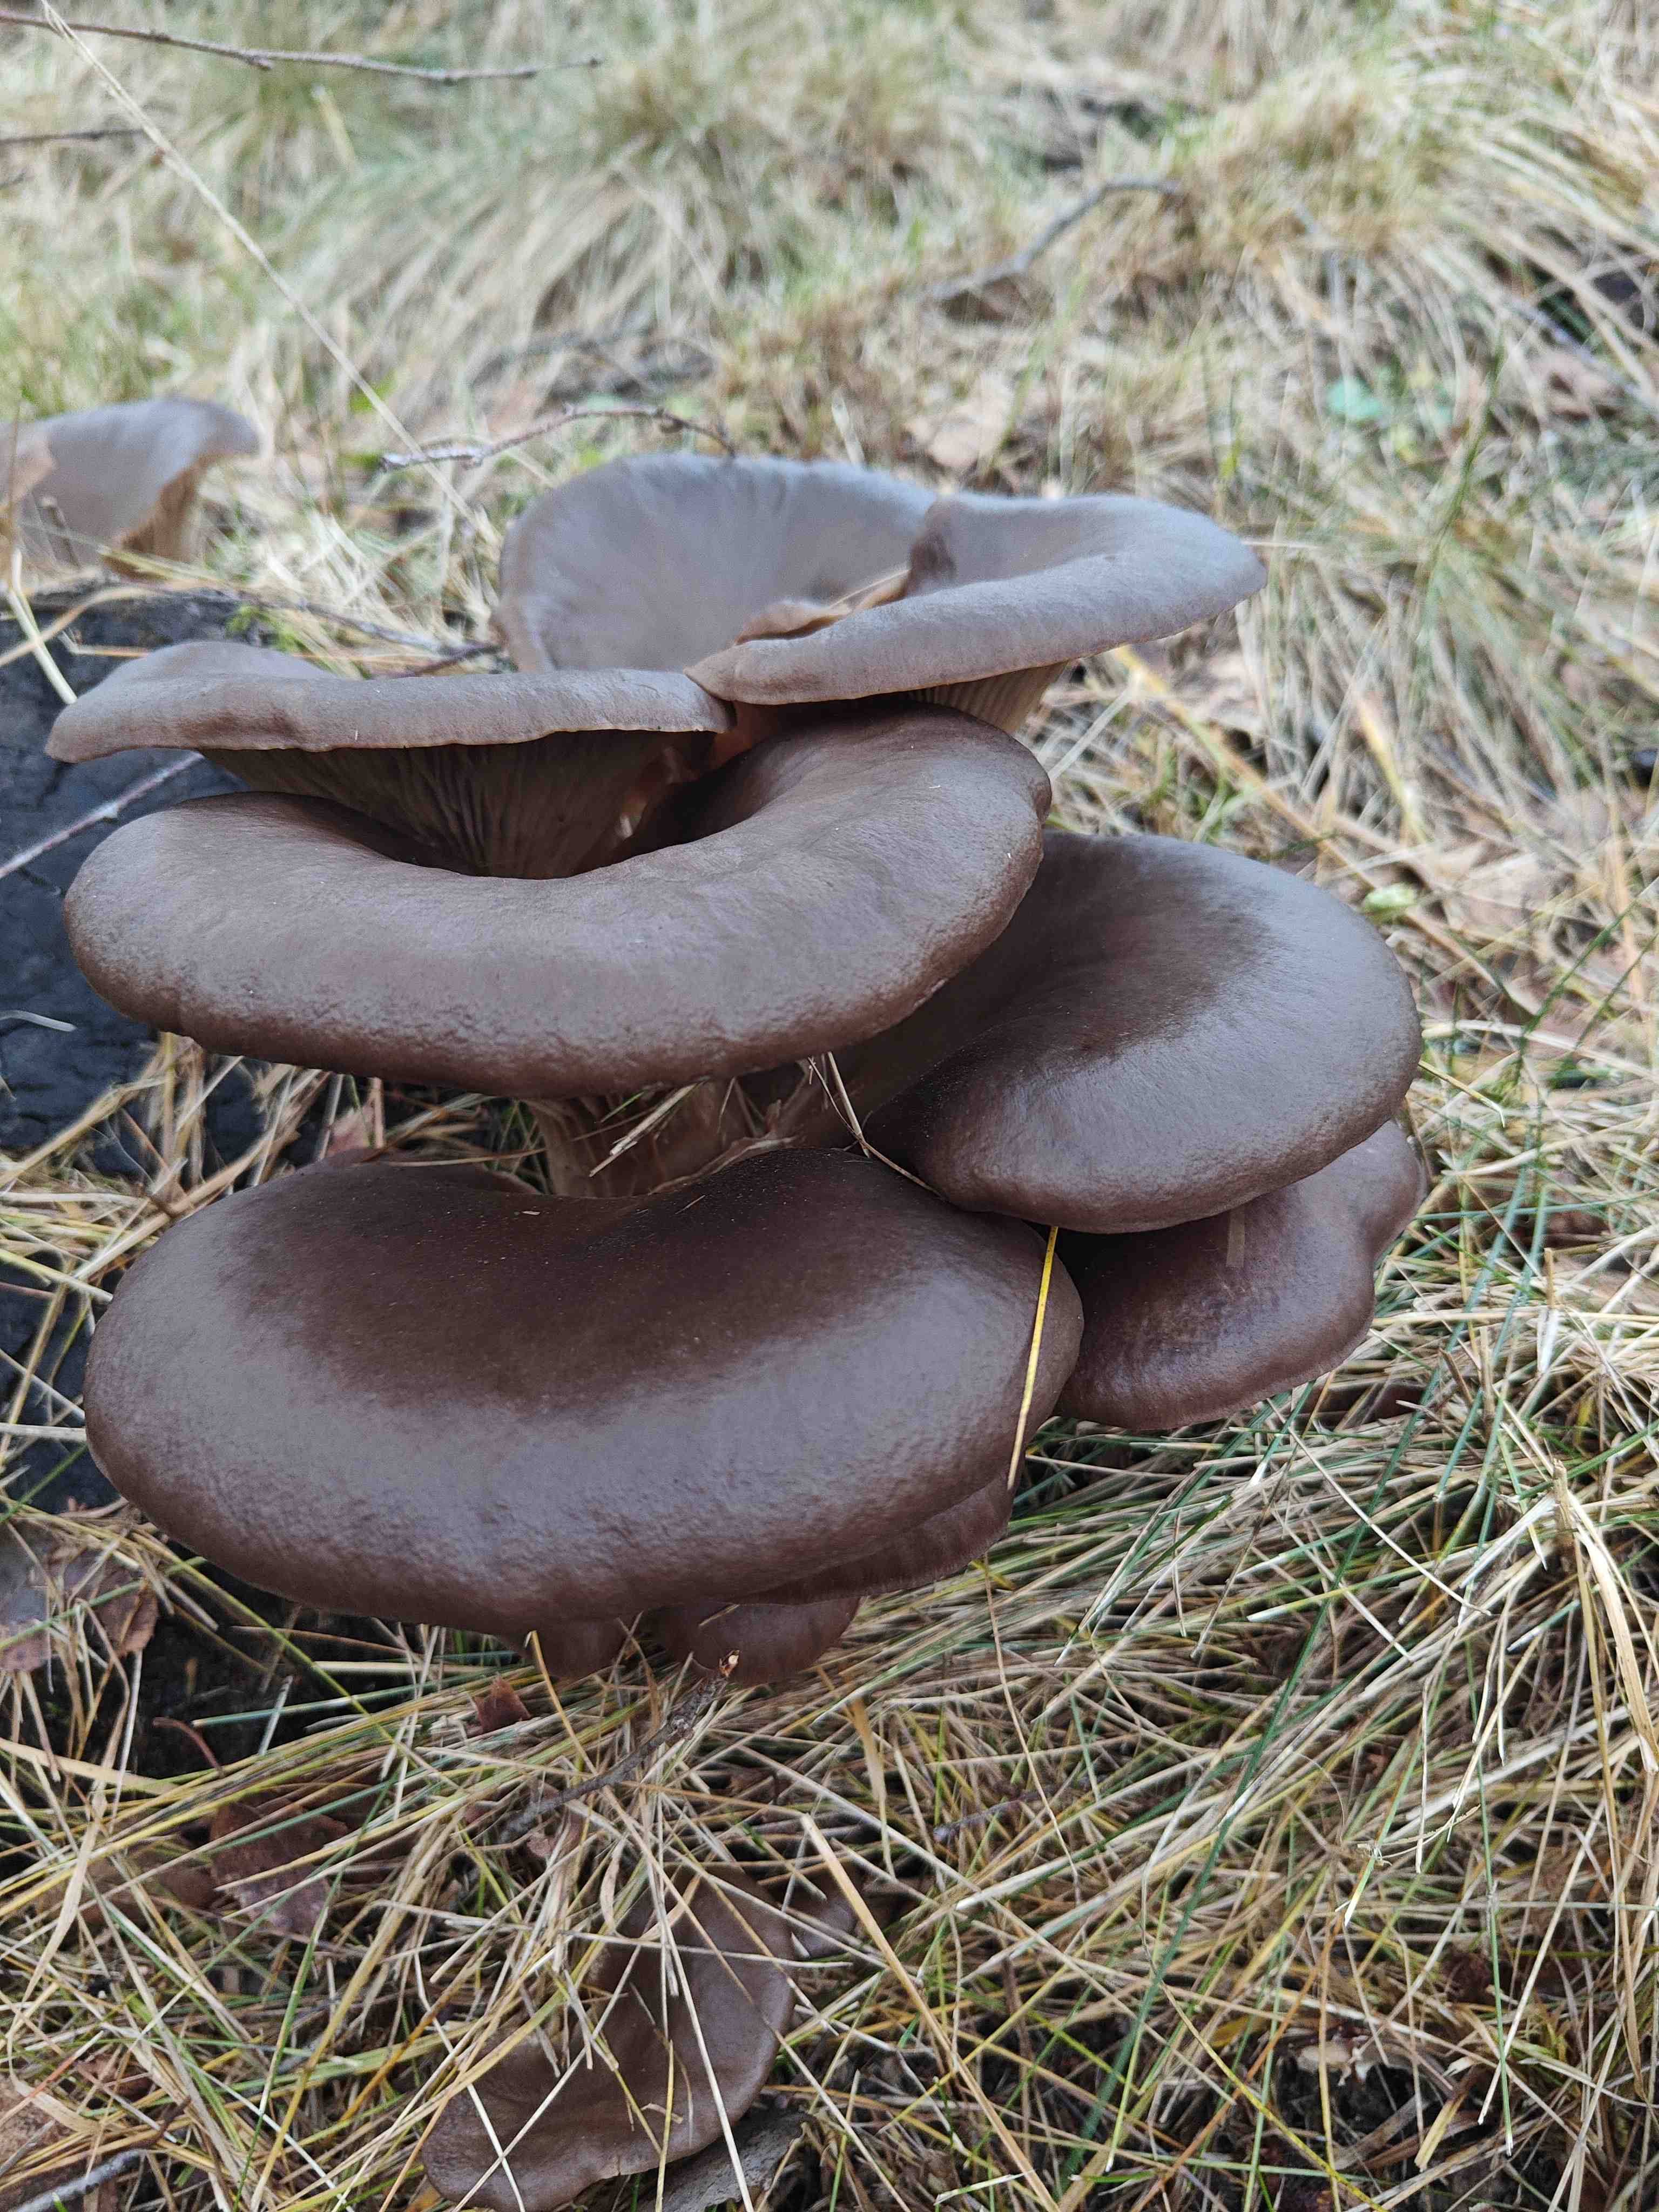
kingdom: Fungi
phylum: Basidiomycota
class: Agaricomycetes
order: Agaricales
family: Pleurotaceae
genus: Pleurotus
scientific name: Pleurotus ostreatus
